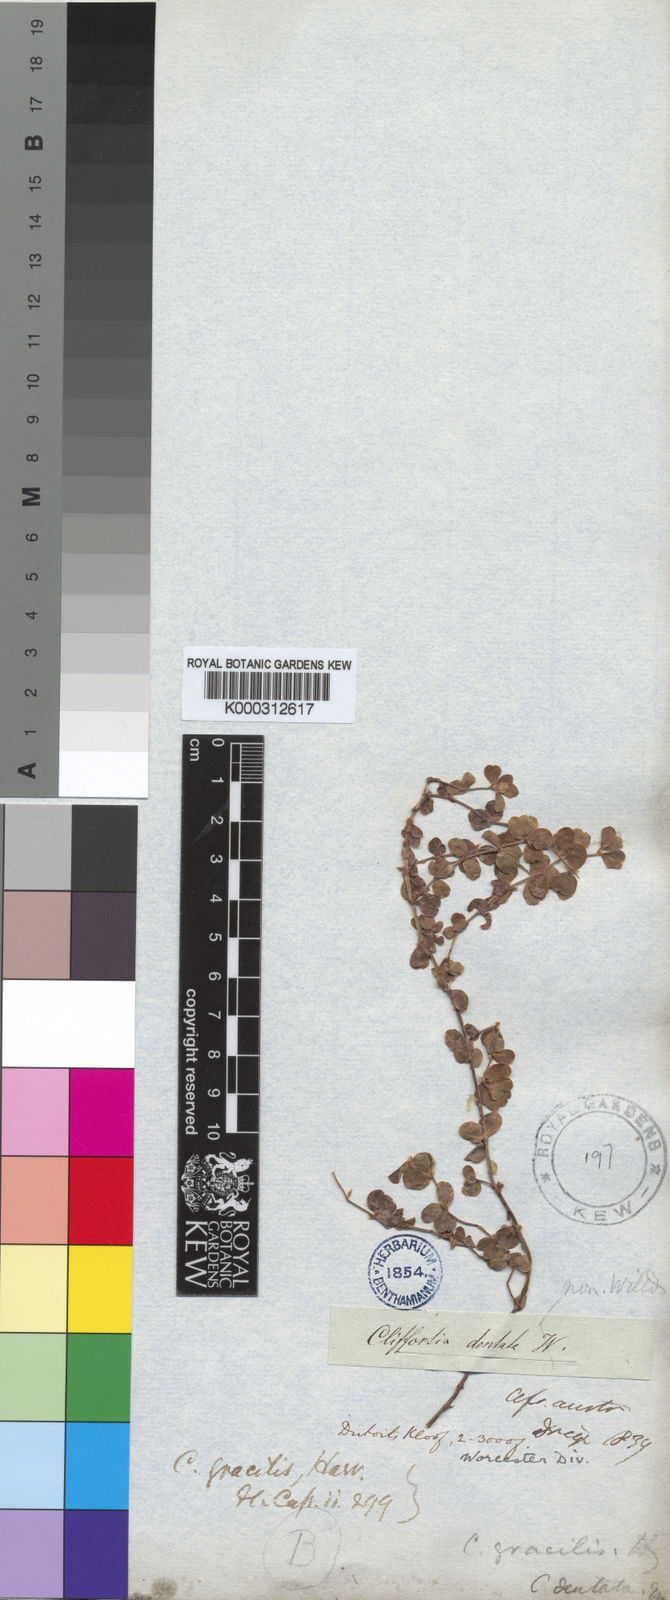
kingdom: Plantae
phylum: Tracheophyta
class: Magnoliopsida
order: Rosales
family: Rosaceae
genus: Cliffortia
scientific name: Cliffortia dentata
